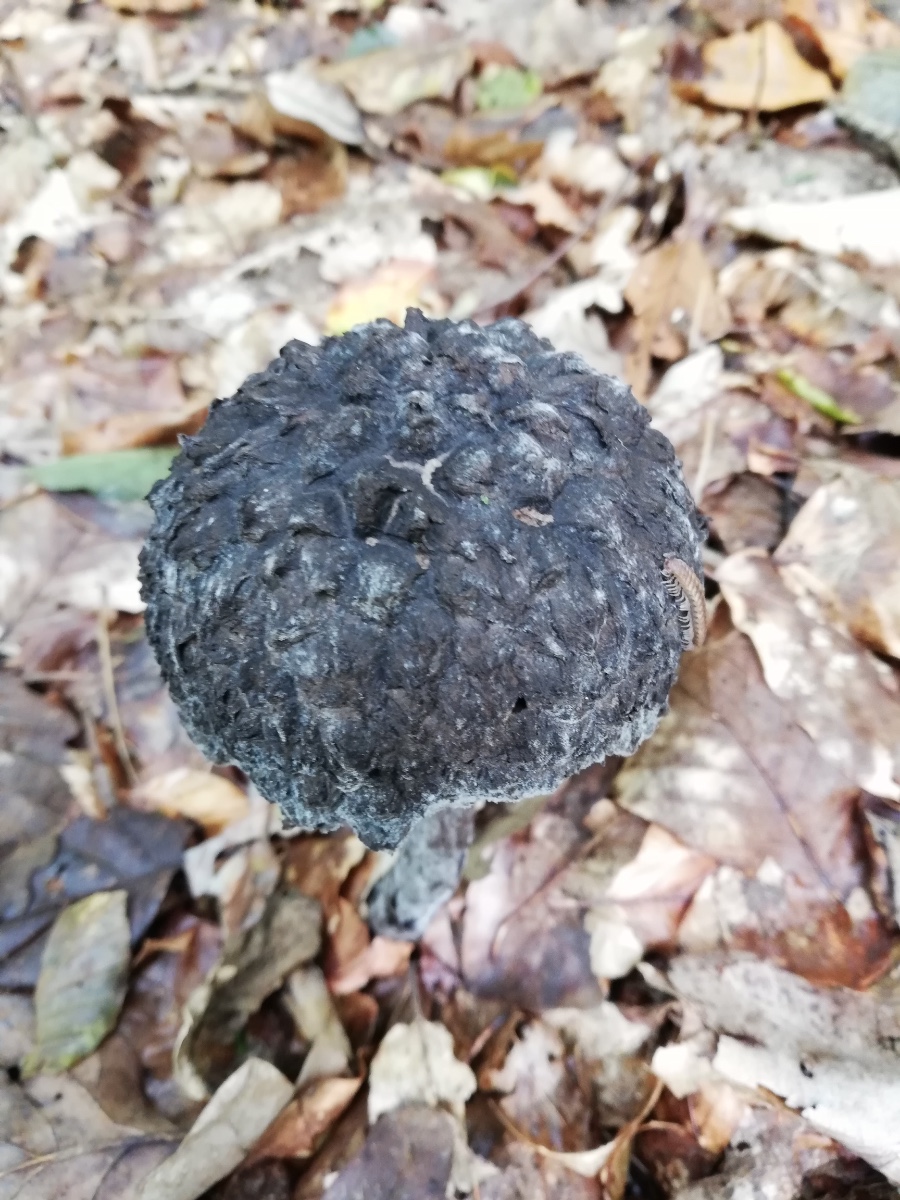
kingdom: Fungi
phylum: Basidiomycota
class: Agaricomycetes
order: Boletales
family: Boletaceae
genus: Strobilomyces
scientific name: Strobilomyces strobilaceus
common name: koglerørhat
